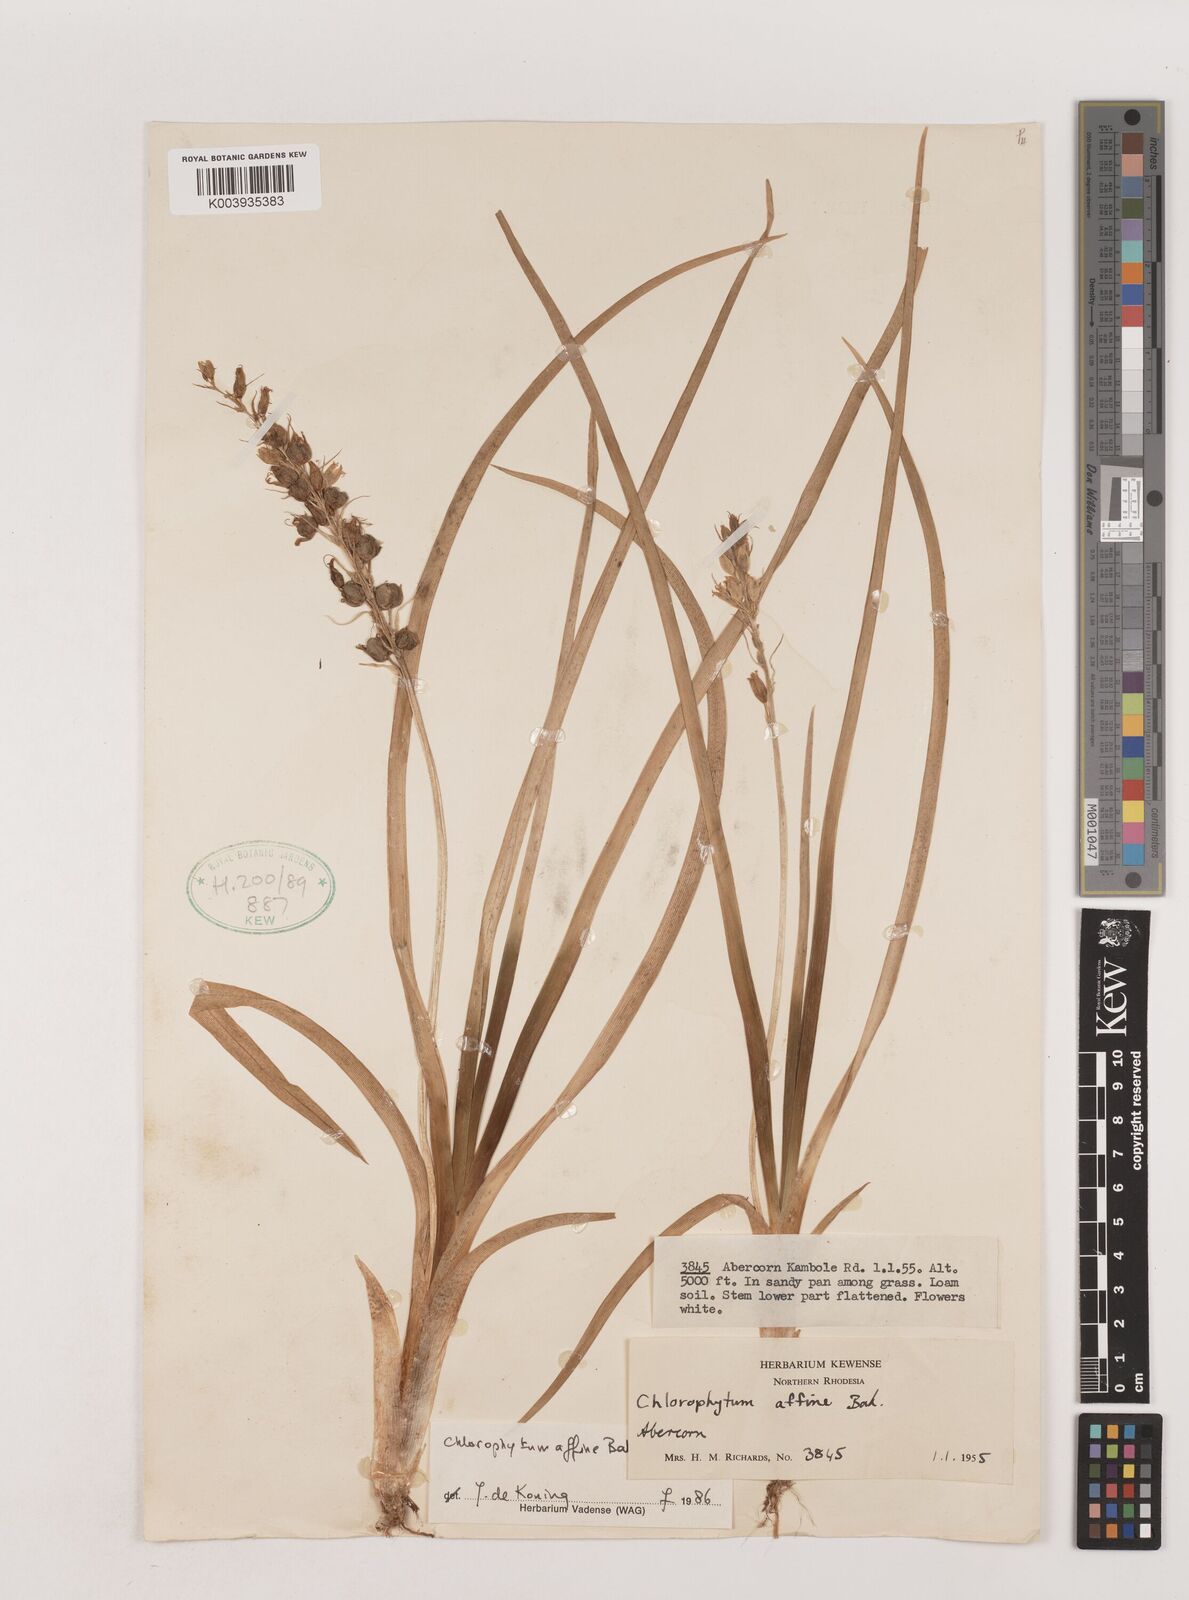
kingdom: Plantae
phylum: Tracheophyta
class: Liliopsida
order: Asparagales
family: Asparagaceae
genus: Chlorophytum
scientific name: Chlorophytum affine
